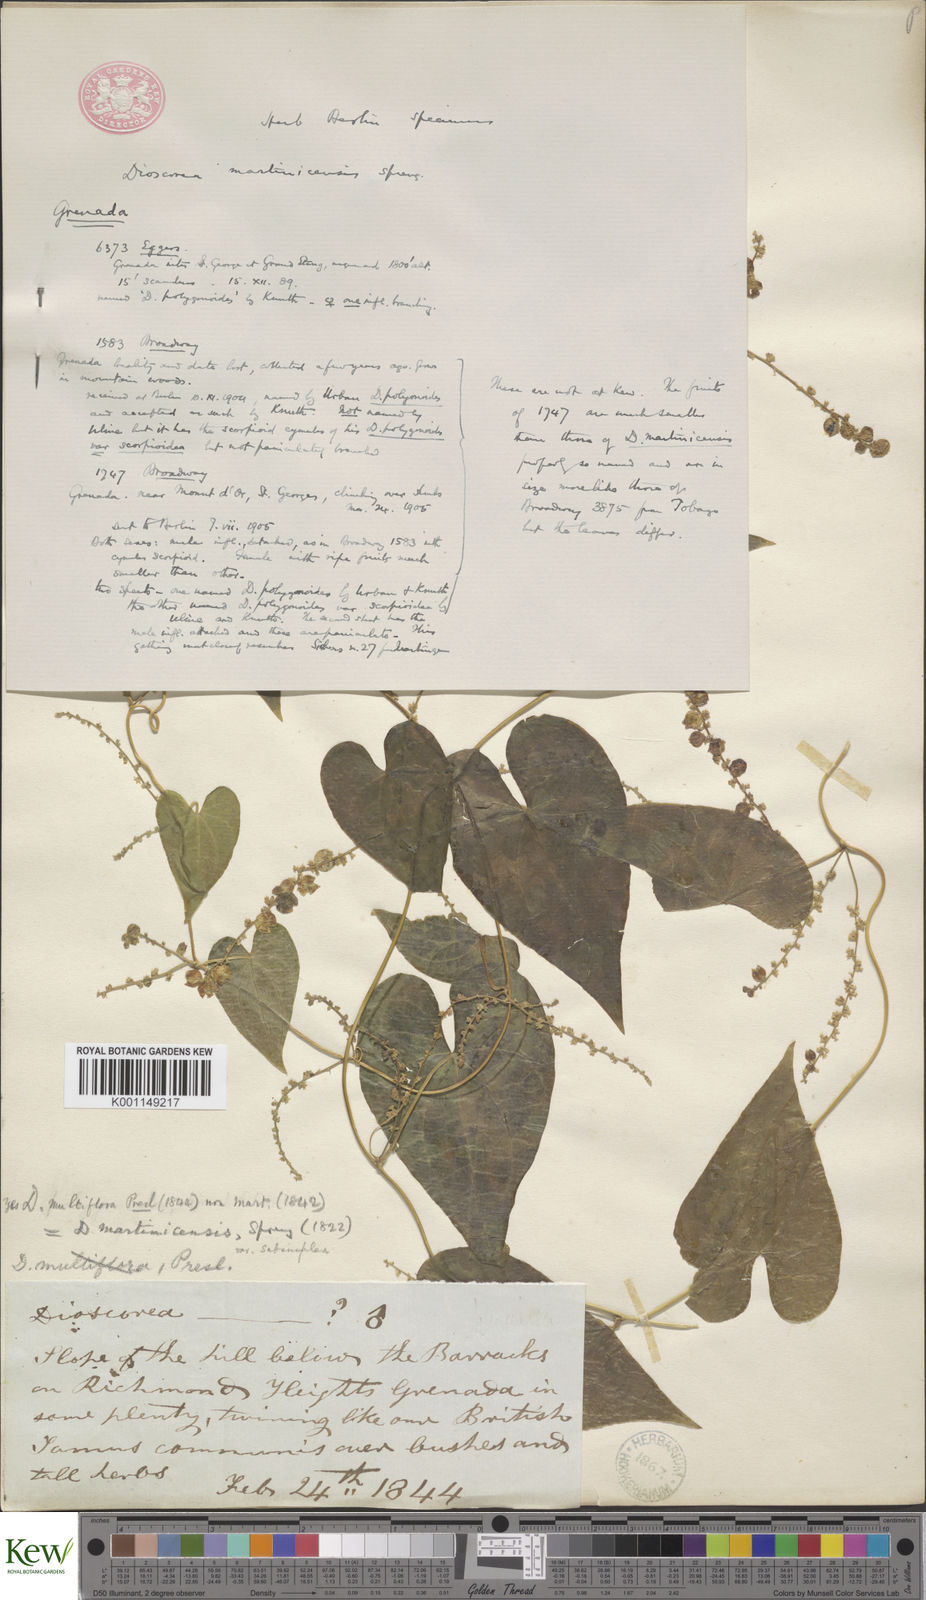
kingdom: Plantae
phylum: Tracheophyta
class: Liliopsida
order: Dioscoreales
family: Dioscoreaceae
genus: Dioscorea
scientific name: Dioscorea polygonoides
